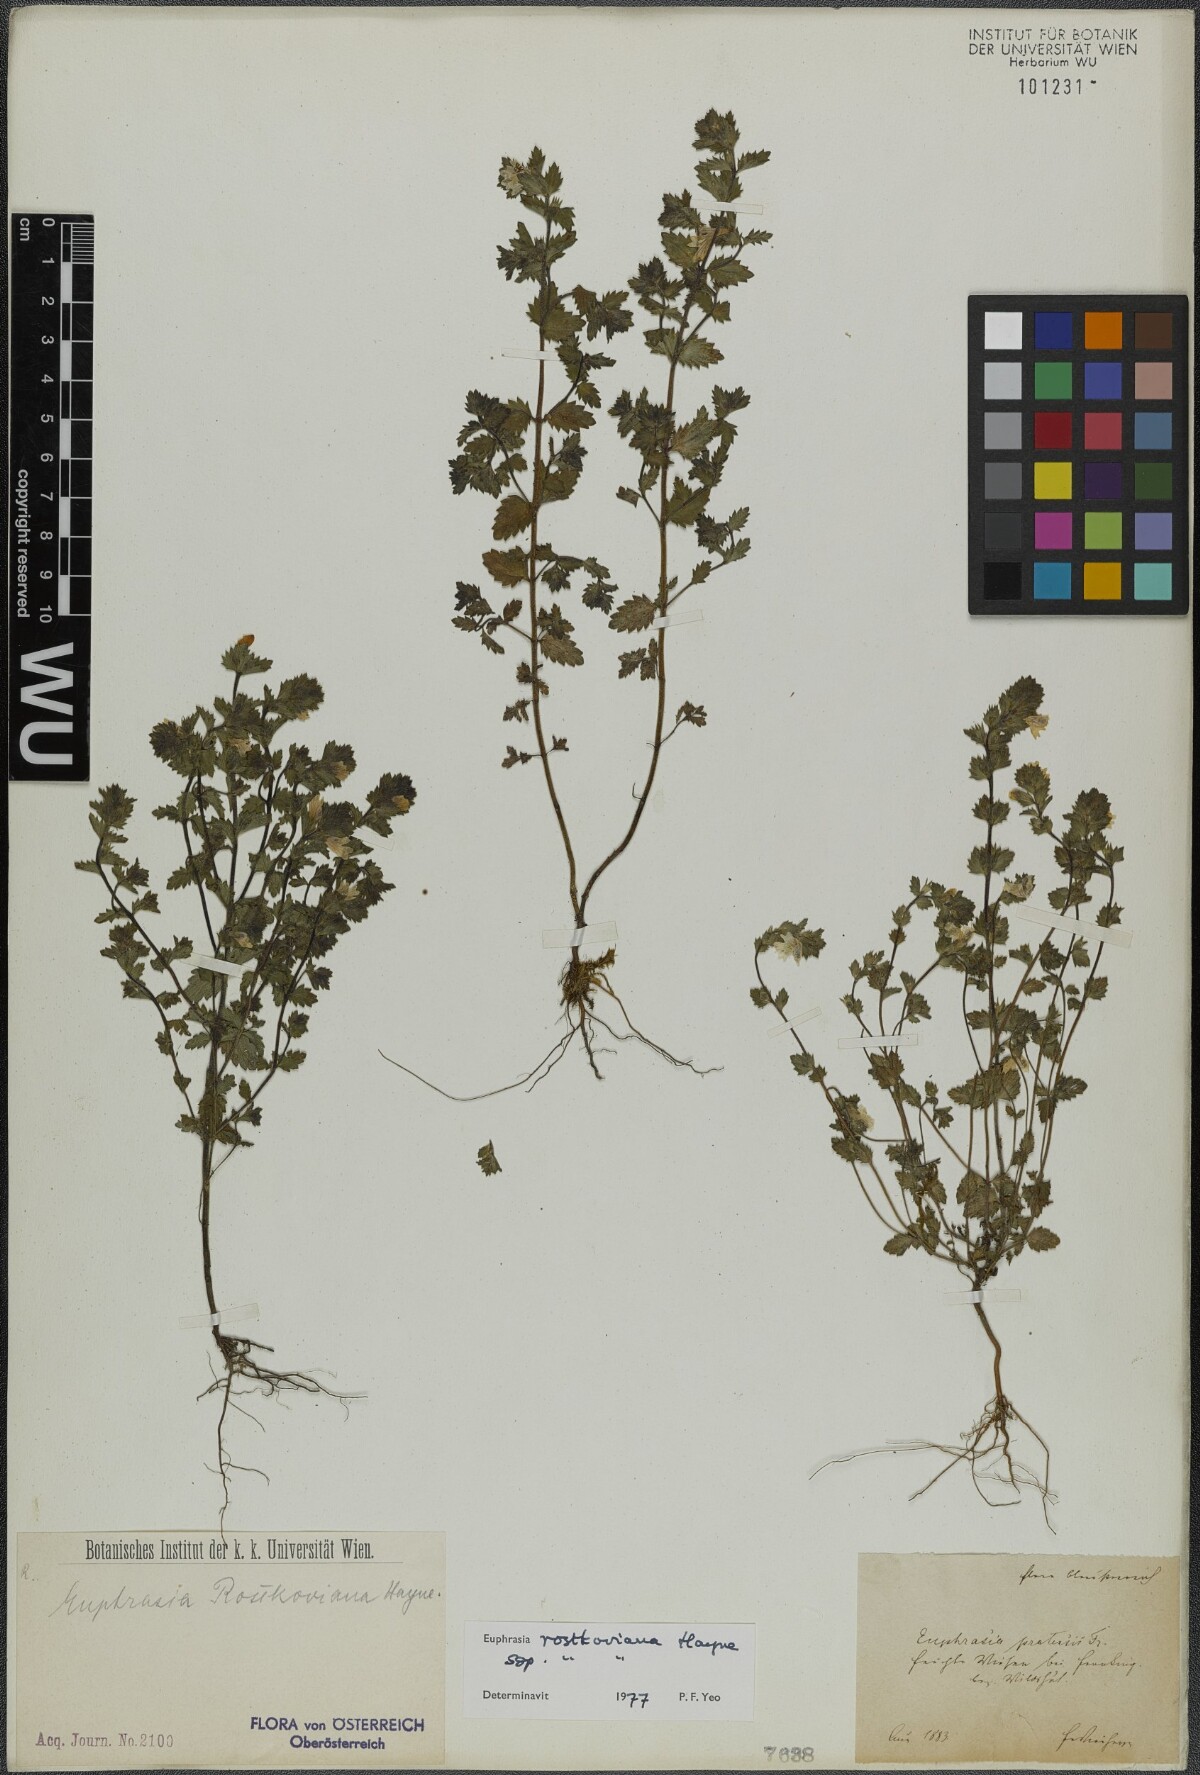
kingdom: Plantae
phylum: Tracheophyta
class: Magnoliopsida
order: Lamiales
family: Orobanchaceae
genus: Euphrasia
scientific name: Euphrasia officinalis
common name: Eyebright
